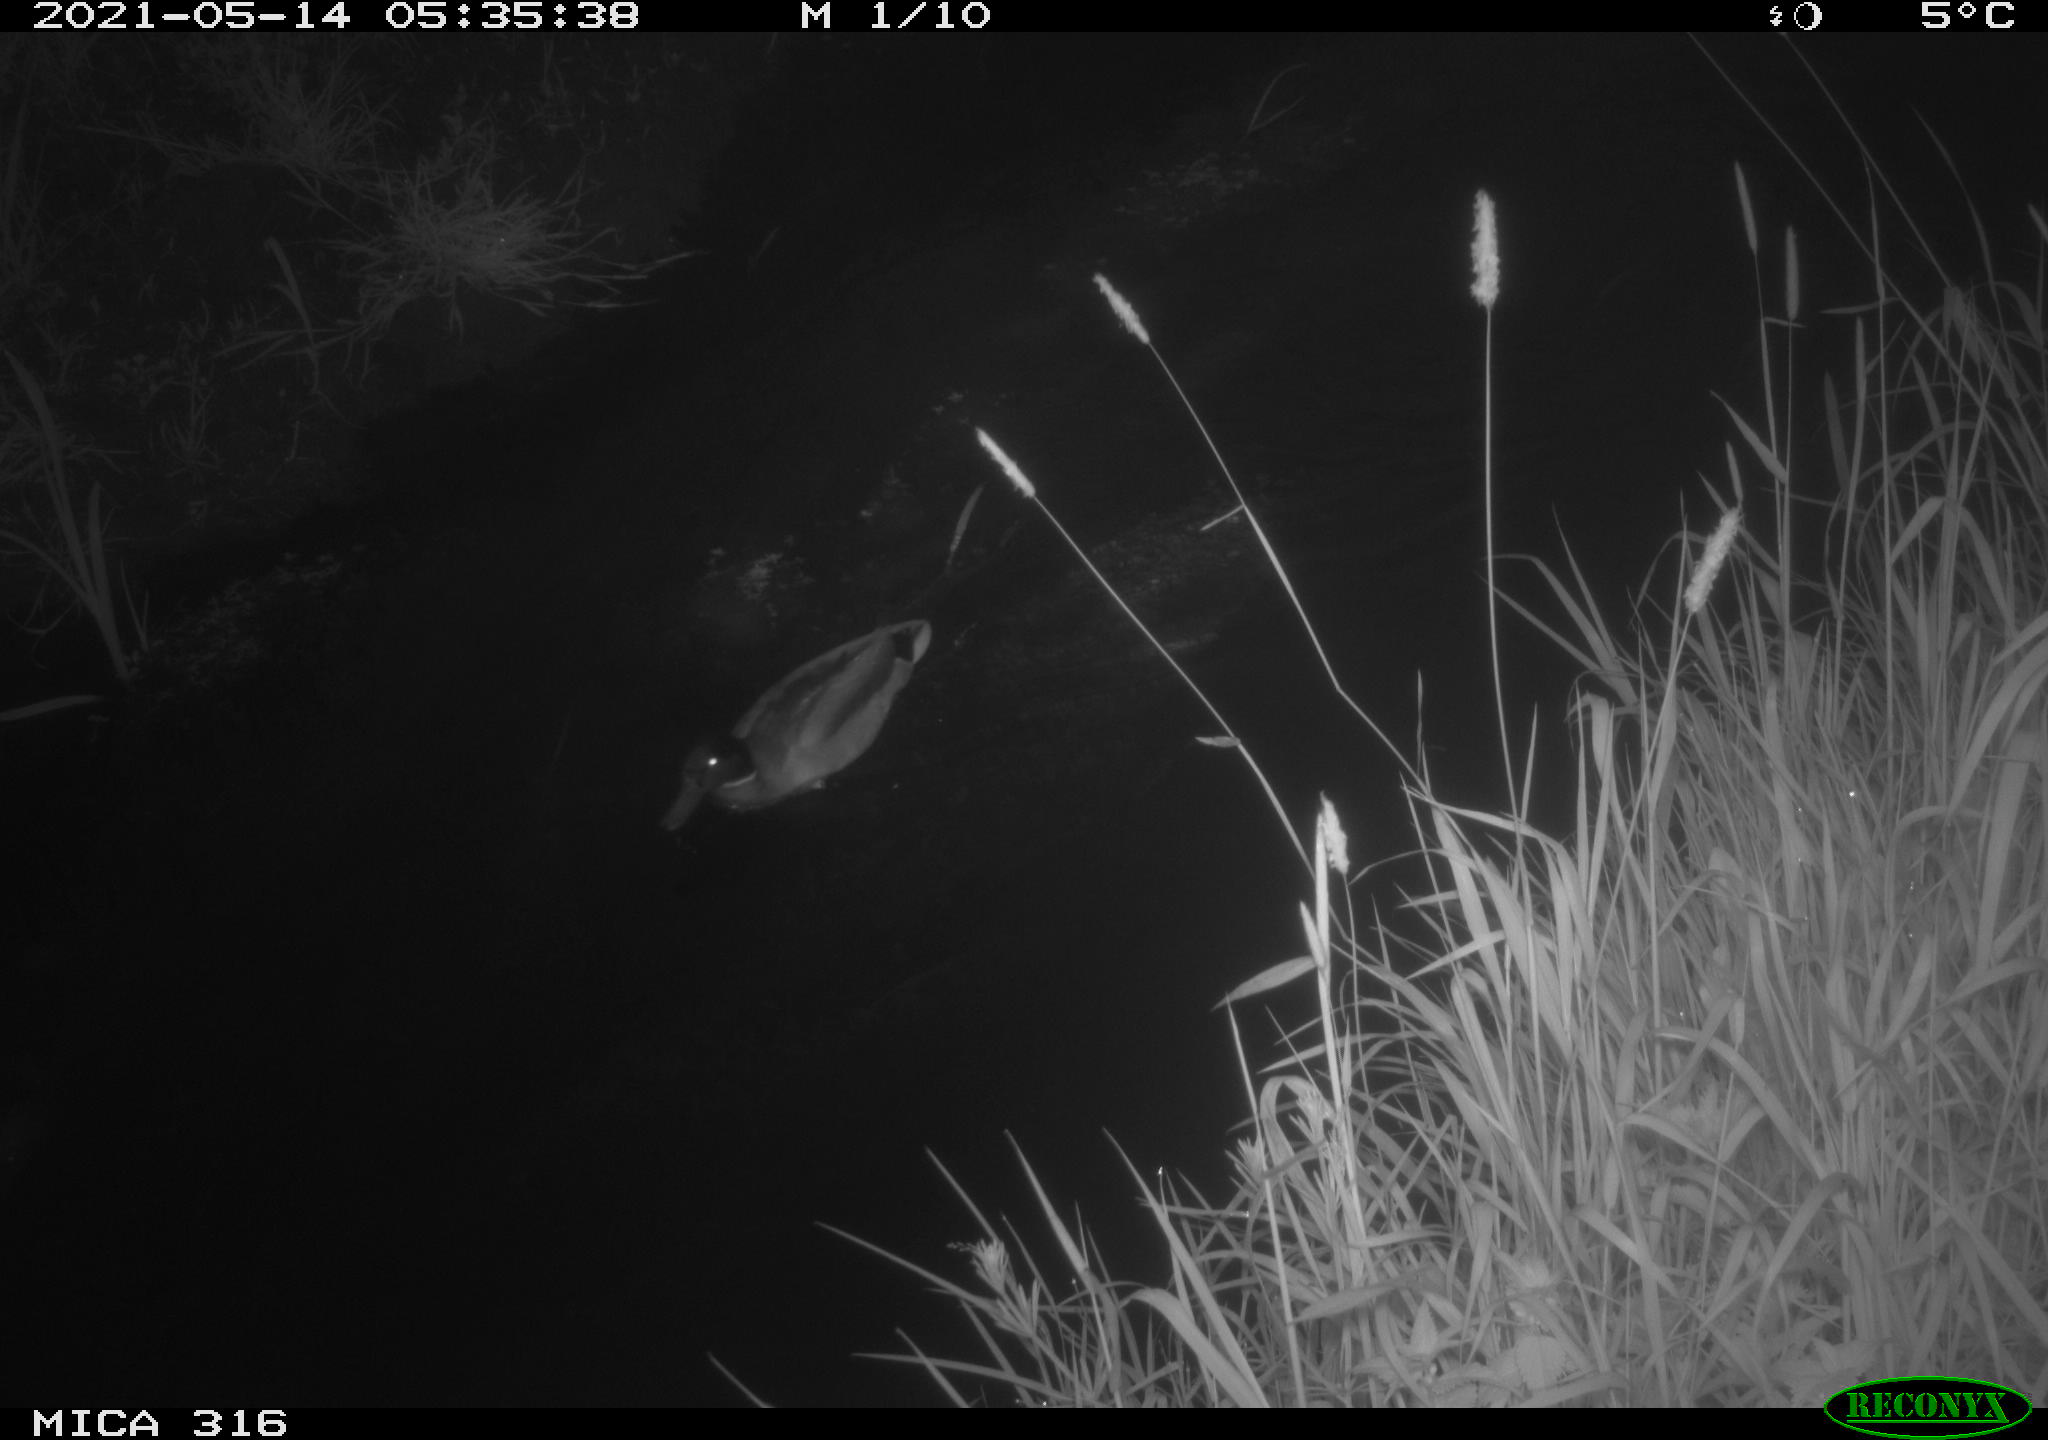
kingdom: Animalia
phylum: Chordata
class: Aves
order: Anseriformes
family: Anatidae
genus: Anas
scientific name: Anas platyrhynchos
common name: Mallard
